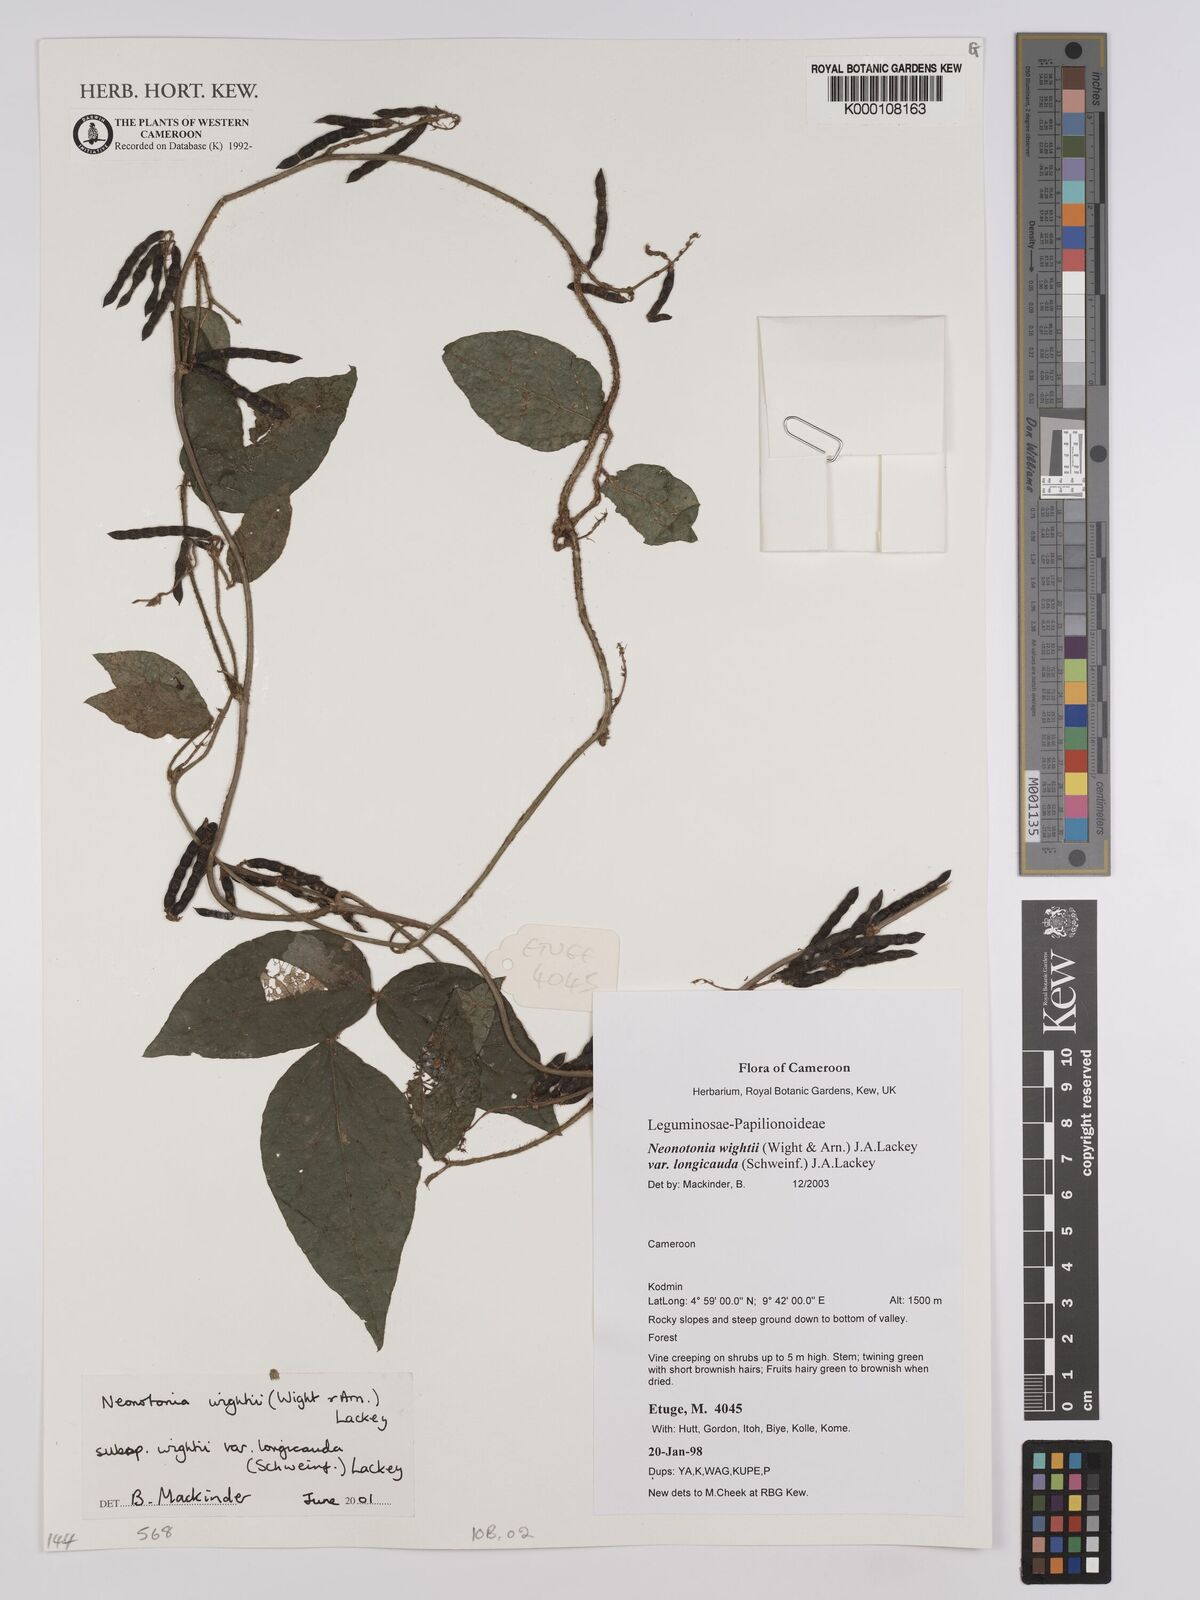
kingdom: Plantae
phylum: Tracheophyta
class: Magnoliopsida
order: Fabales
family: Fabaceae
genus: Neonotonia
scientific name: Neonotonia wightii
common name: Perennial soybean
